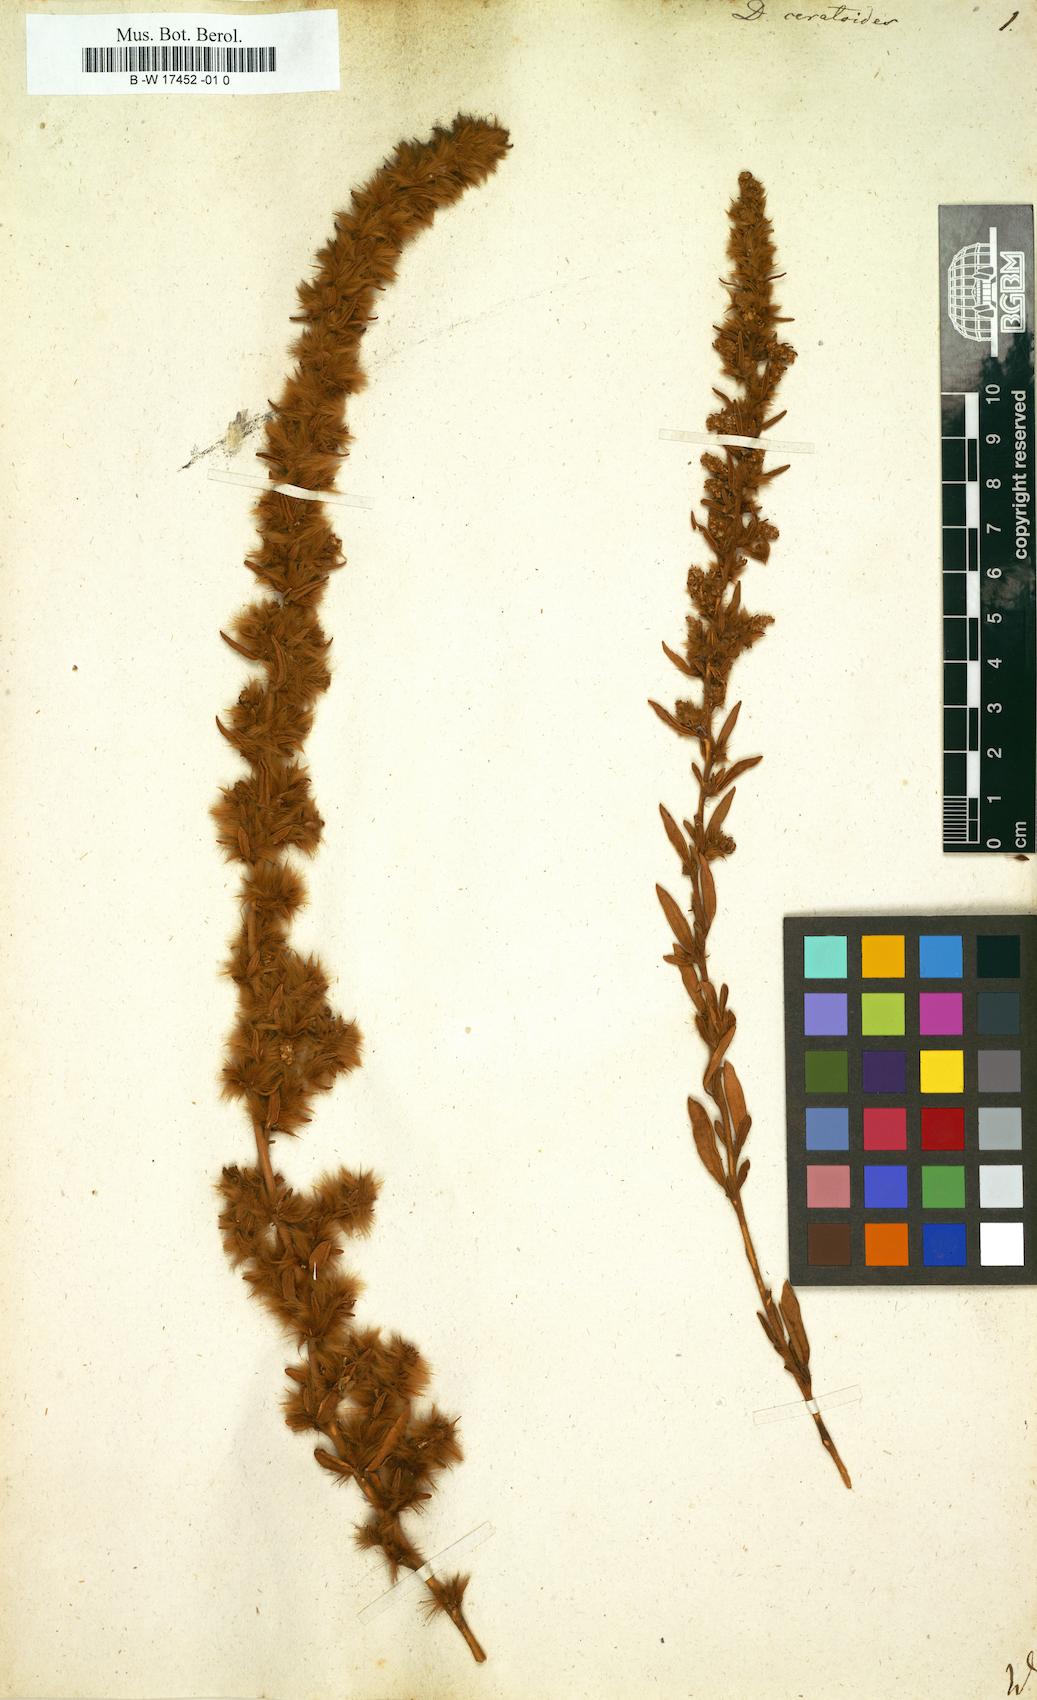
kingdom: Plantae
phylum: Tracheophyta
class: Magnoliopsida
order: Caryophyllales
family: Amaranthaceae
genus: Krascheninnikovia
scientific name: Krascheninnikovia ceratoides
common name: Pamirian winterfat
